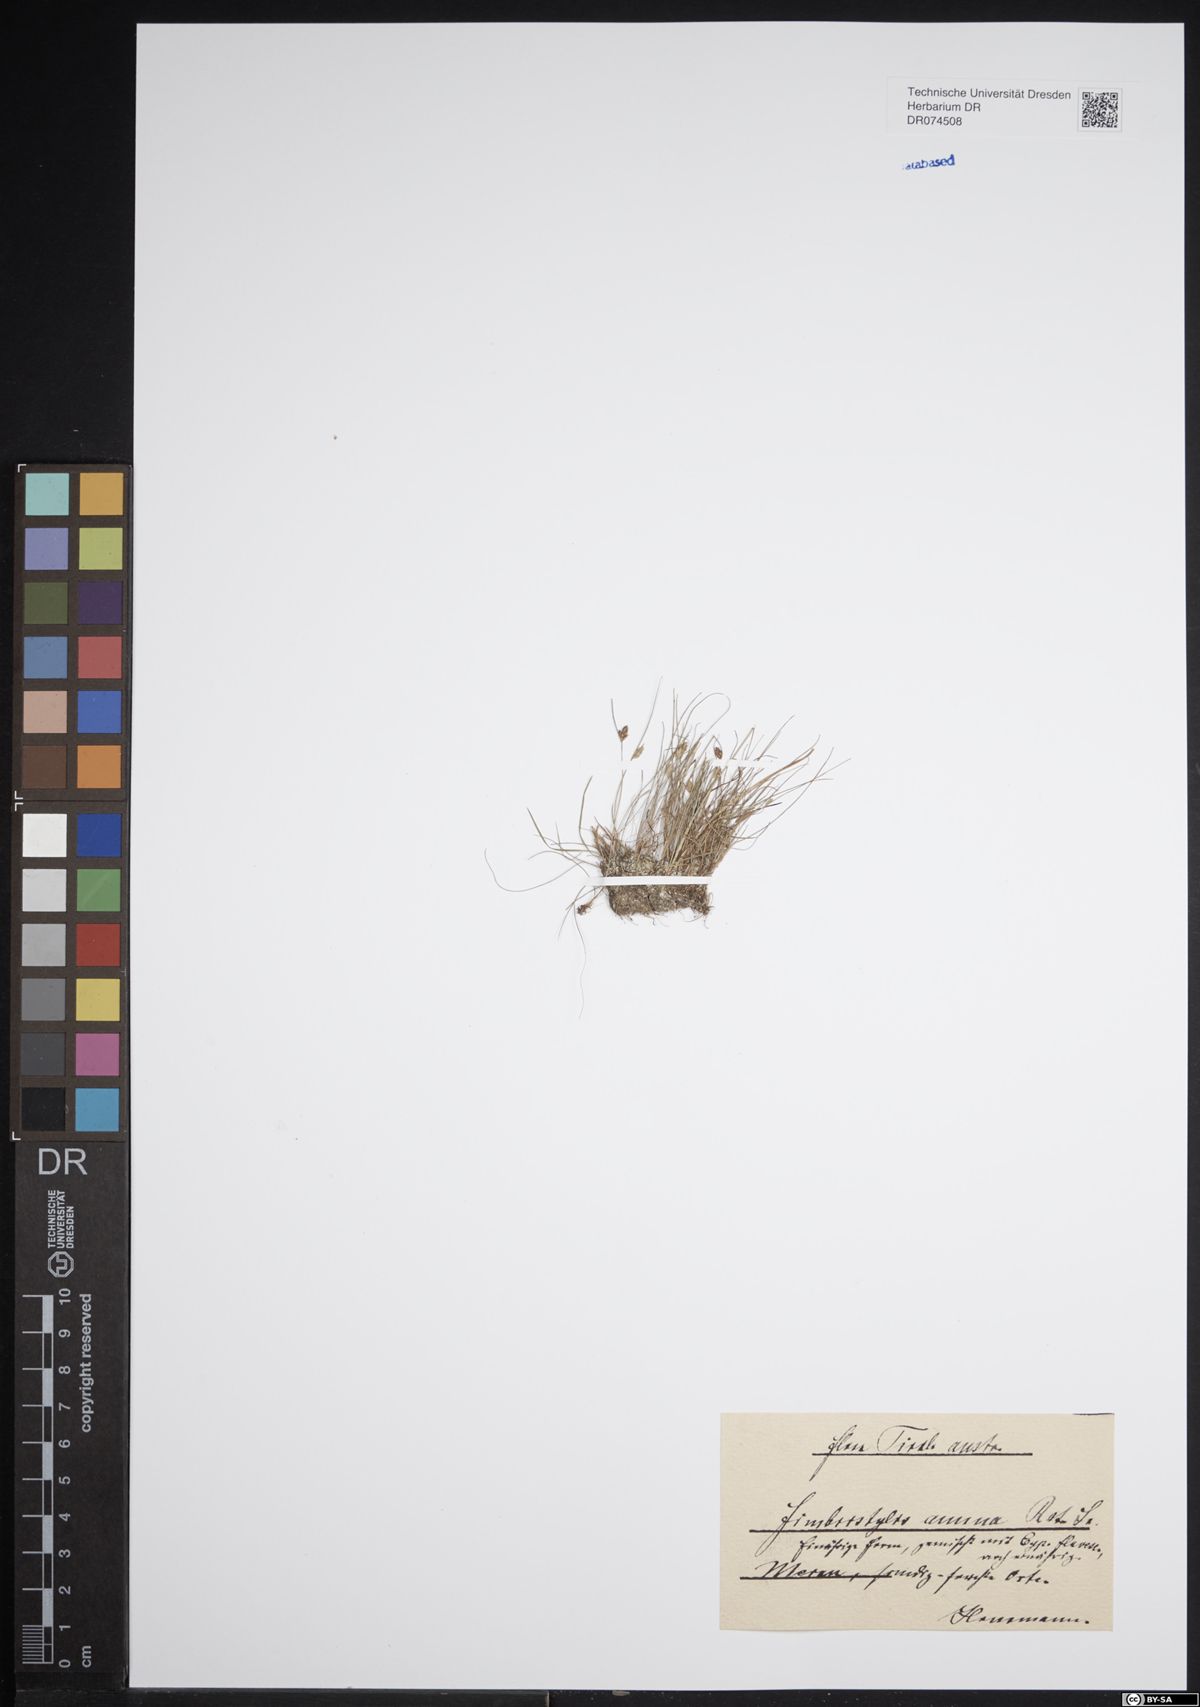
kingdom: Plantae
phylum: Tracheophyta
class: Liliopsida
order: Poales
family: Cyperaceae
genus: Fimbristylis
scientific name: Fimbristylis dichotoma
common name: Forked fimbry
